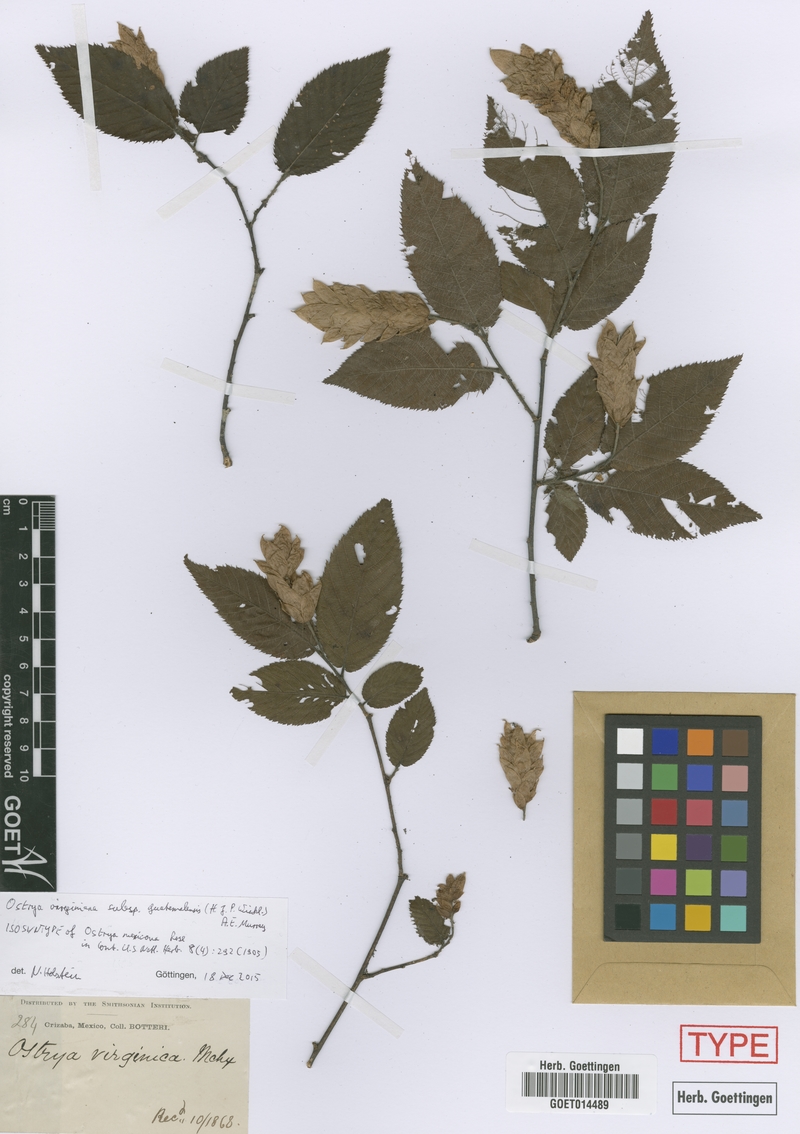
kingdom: Plantae
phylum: Tracheophyta
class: Magnoliopsida
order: Fagales
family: Betulaceae
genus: Ostrya
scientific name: Ostrya virginiana
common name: Ironwood
